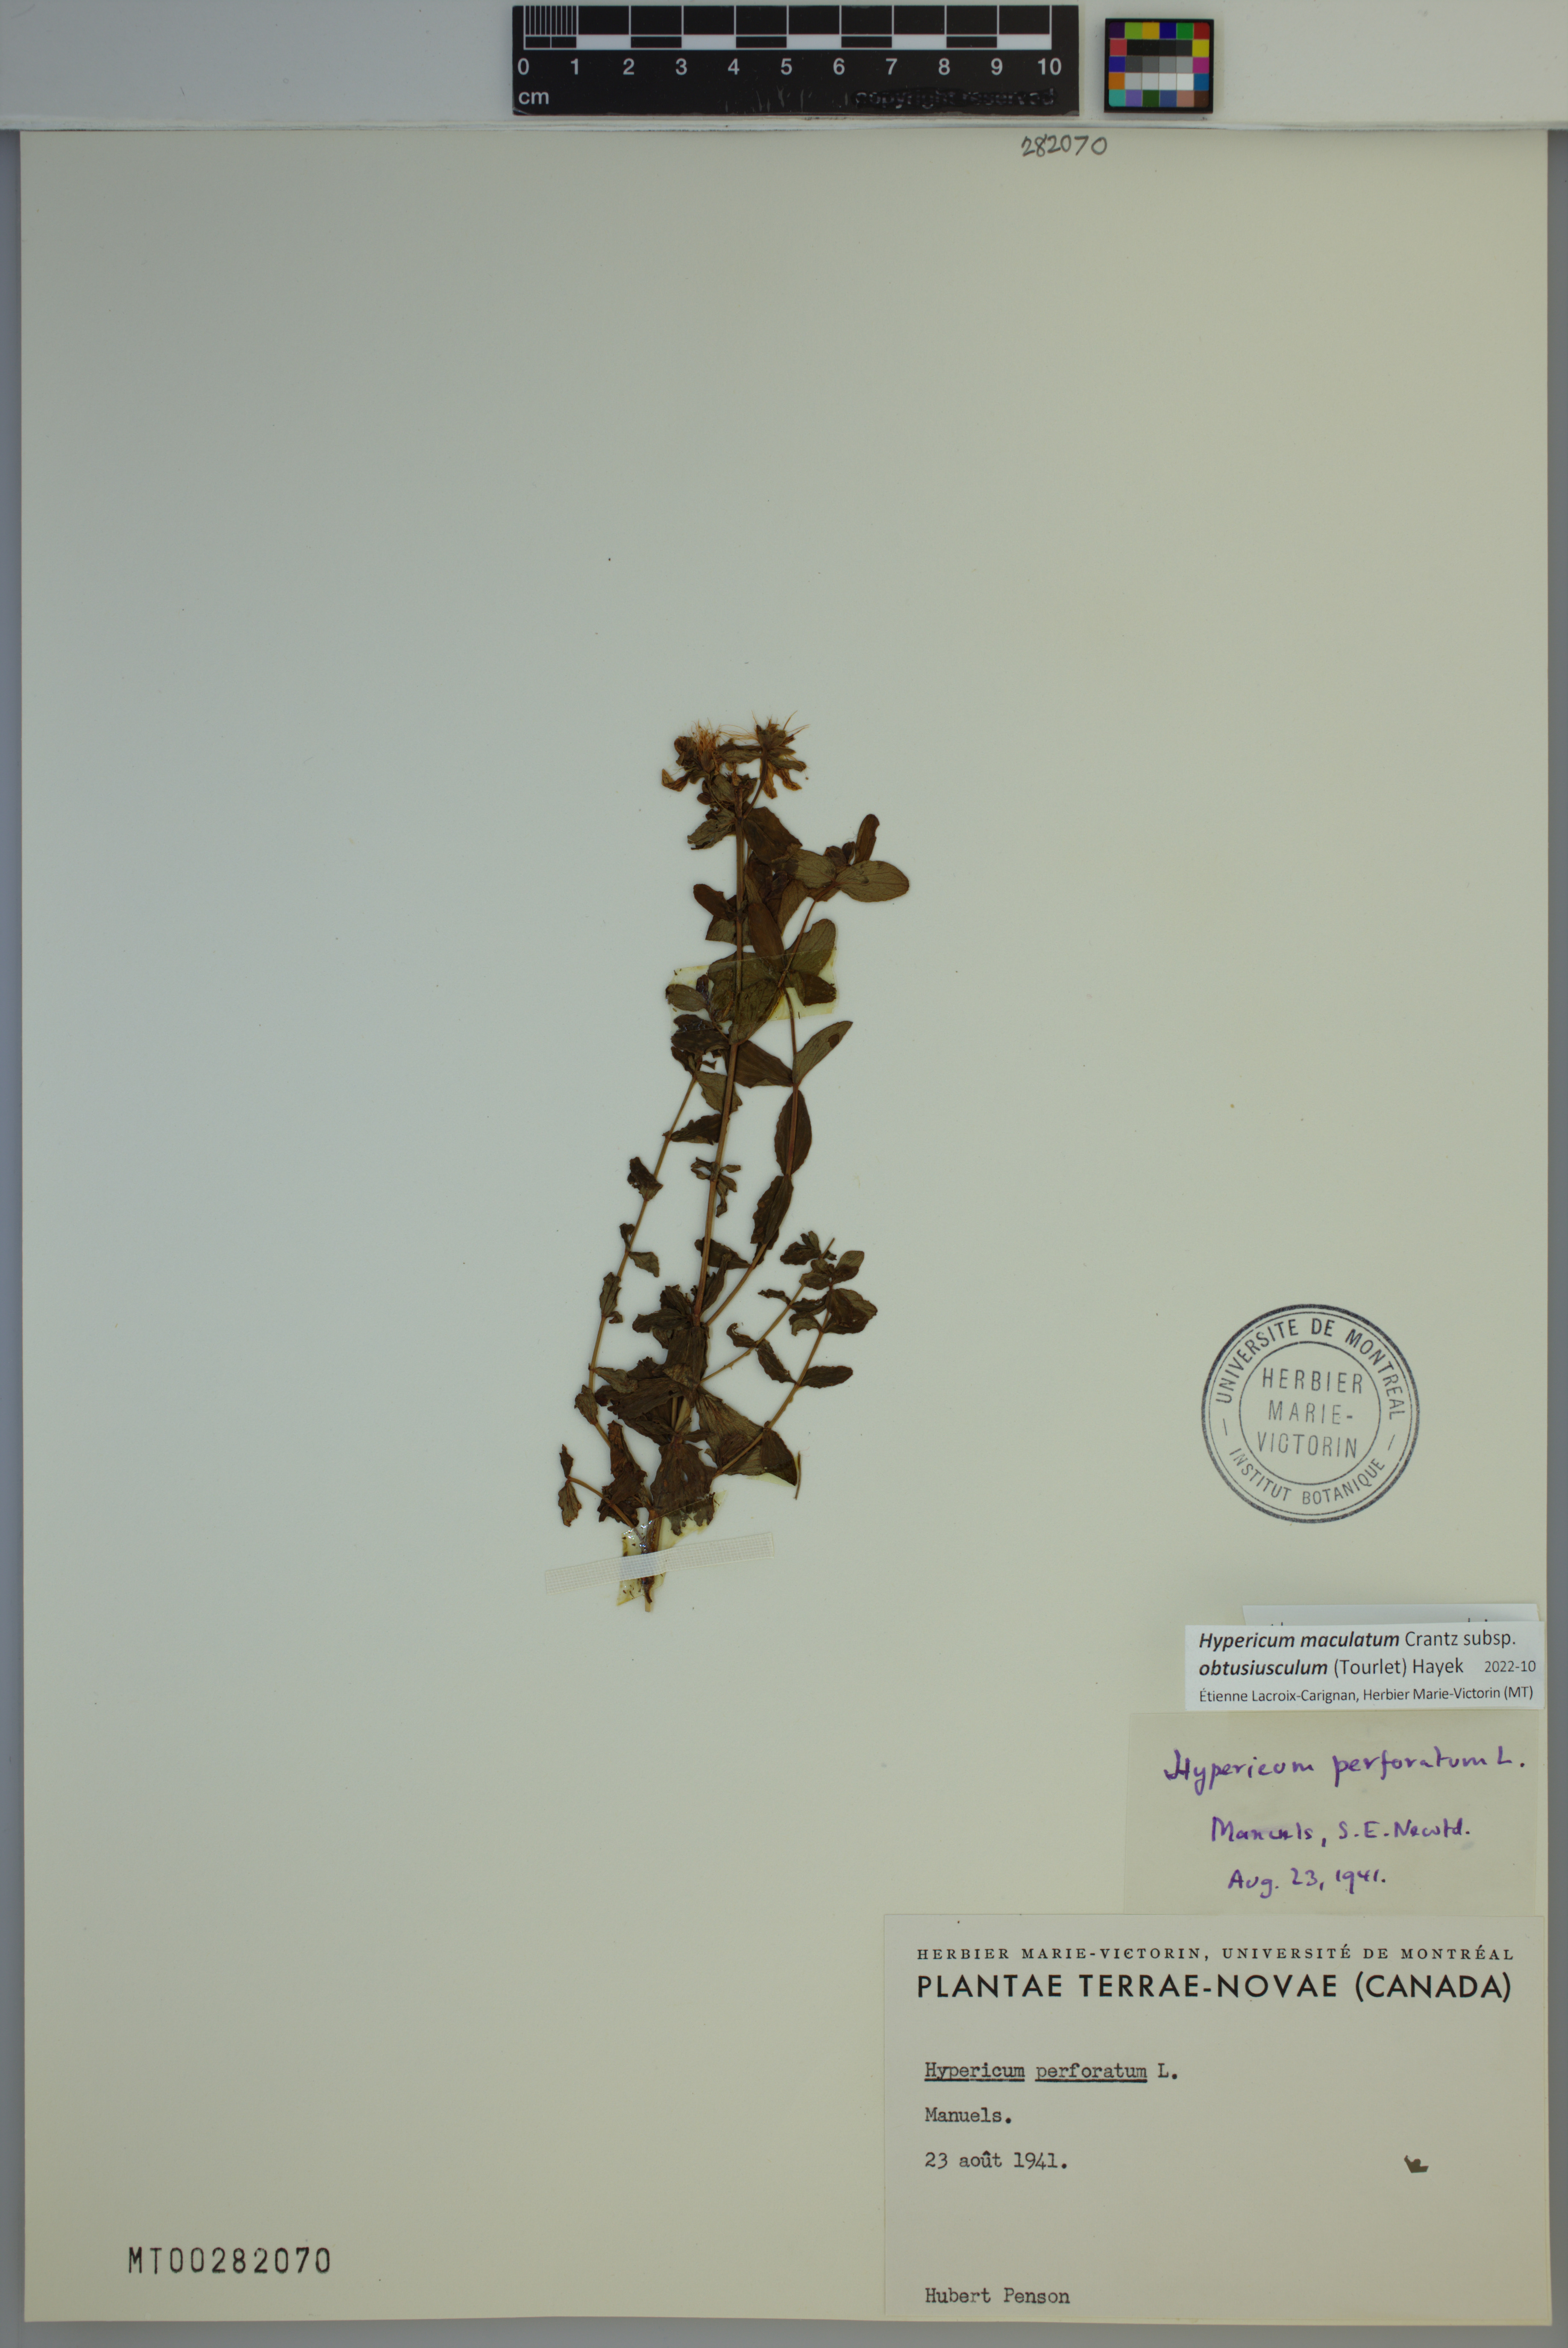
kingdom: Plantae
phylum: Tracheophyta
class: Magnoliopsida
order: Malpighiales
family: Hypericaceae
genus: Hypericum
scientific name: Hypericum dubium
